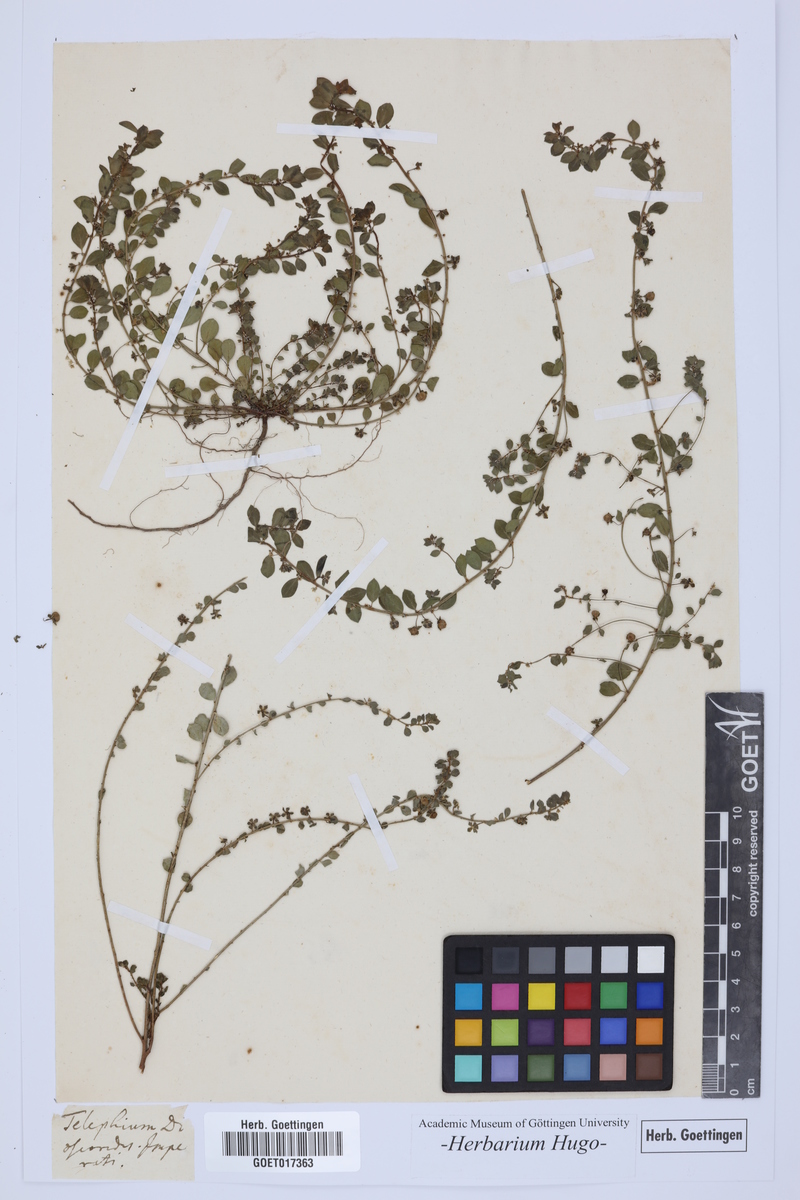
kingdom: Plantae
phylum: Tracheophyta
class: Magnoliopsida
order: Caryophyllales
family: Caryophyllaceae
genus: Telephium
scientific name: Telephium imperati
